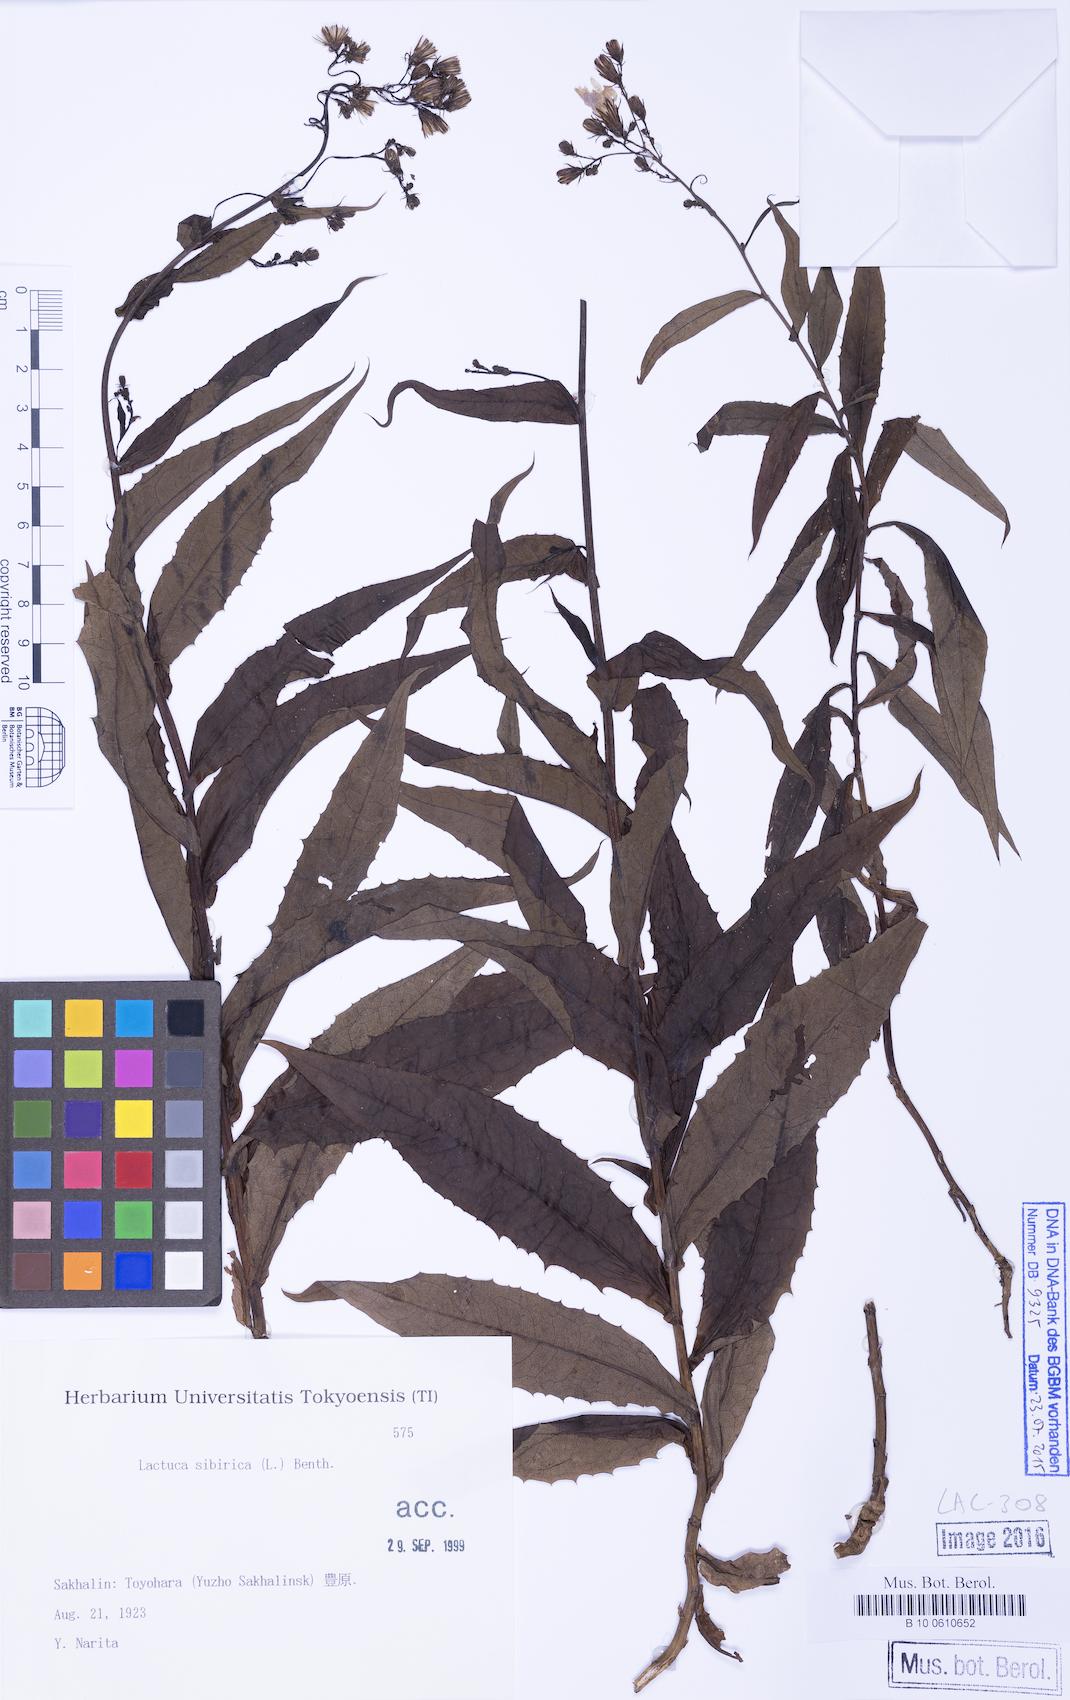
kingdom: Plantae
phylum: Tracheophyta
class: Magnoliopsida
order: Asterales
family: Asteraceae
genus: Lactuca
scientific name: Lactuca sibirica
